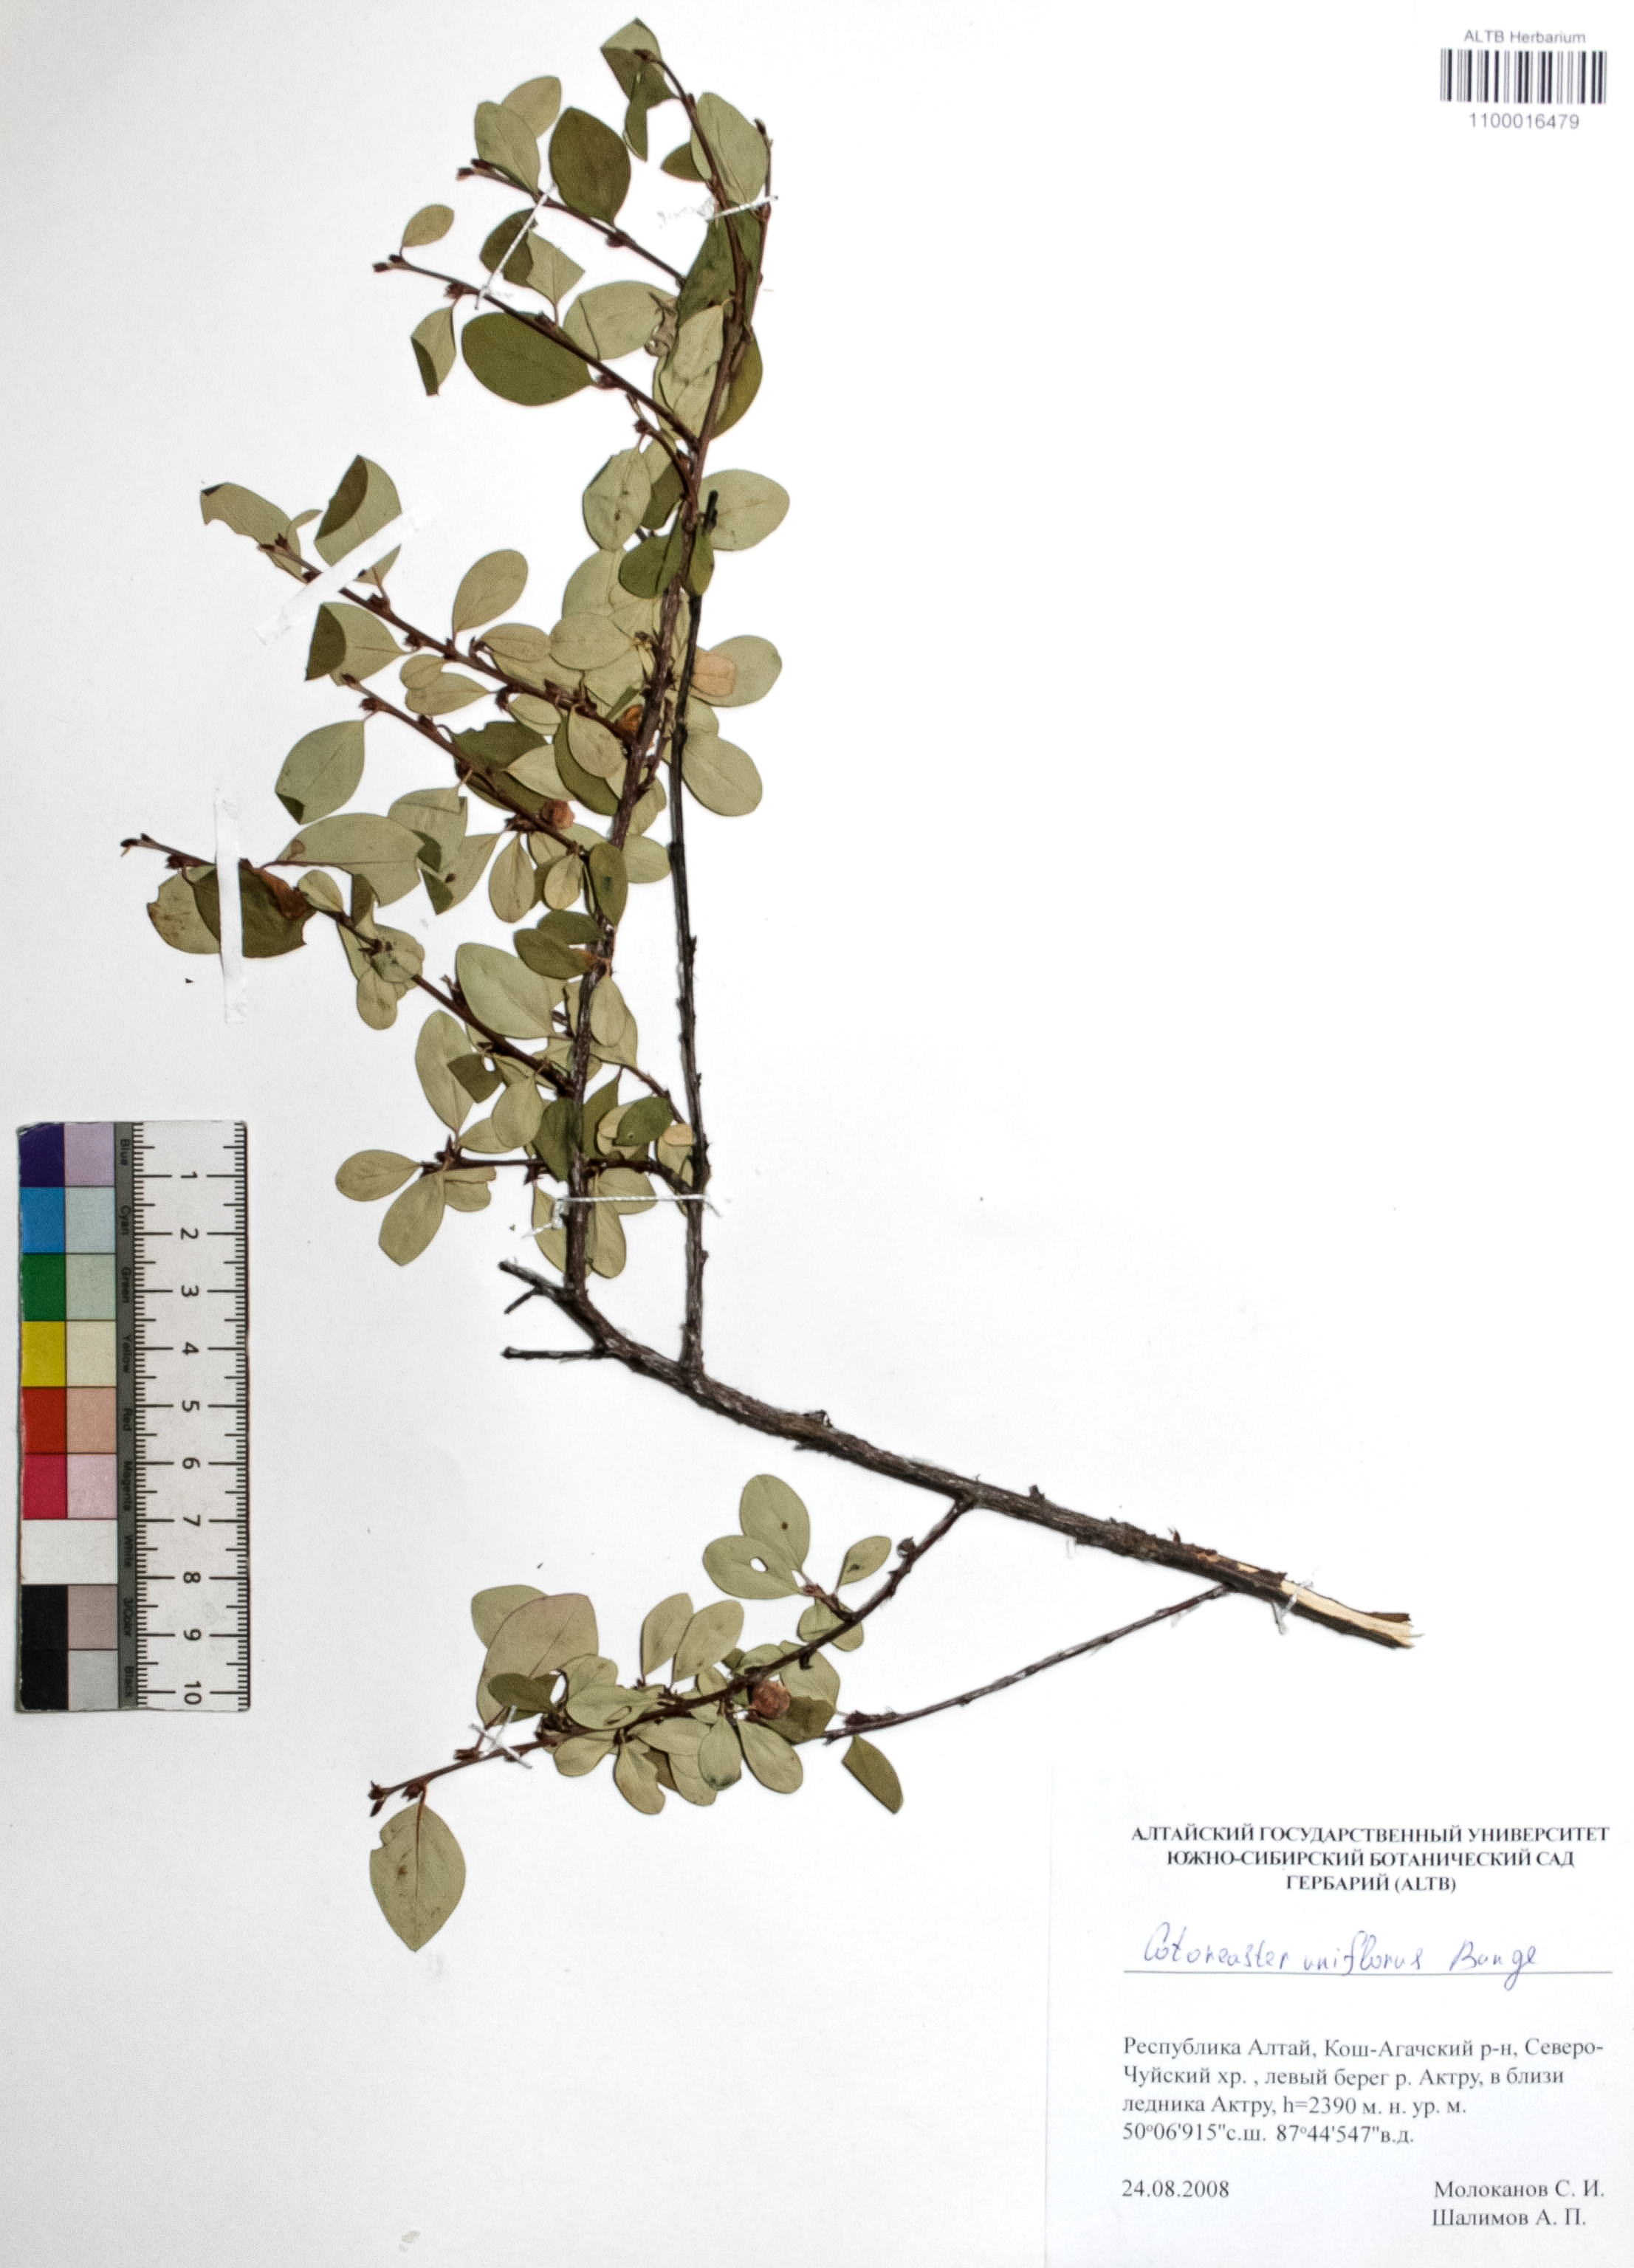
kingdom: Plantae
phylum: Tracheophyta
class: Magnoliopsida
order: Rosales
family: Rosaceae
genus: Cotoneaster
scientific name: Cotoneaster uniflorus
